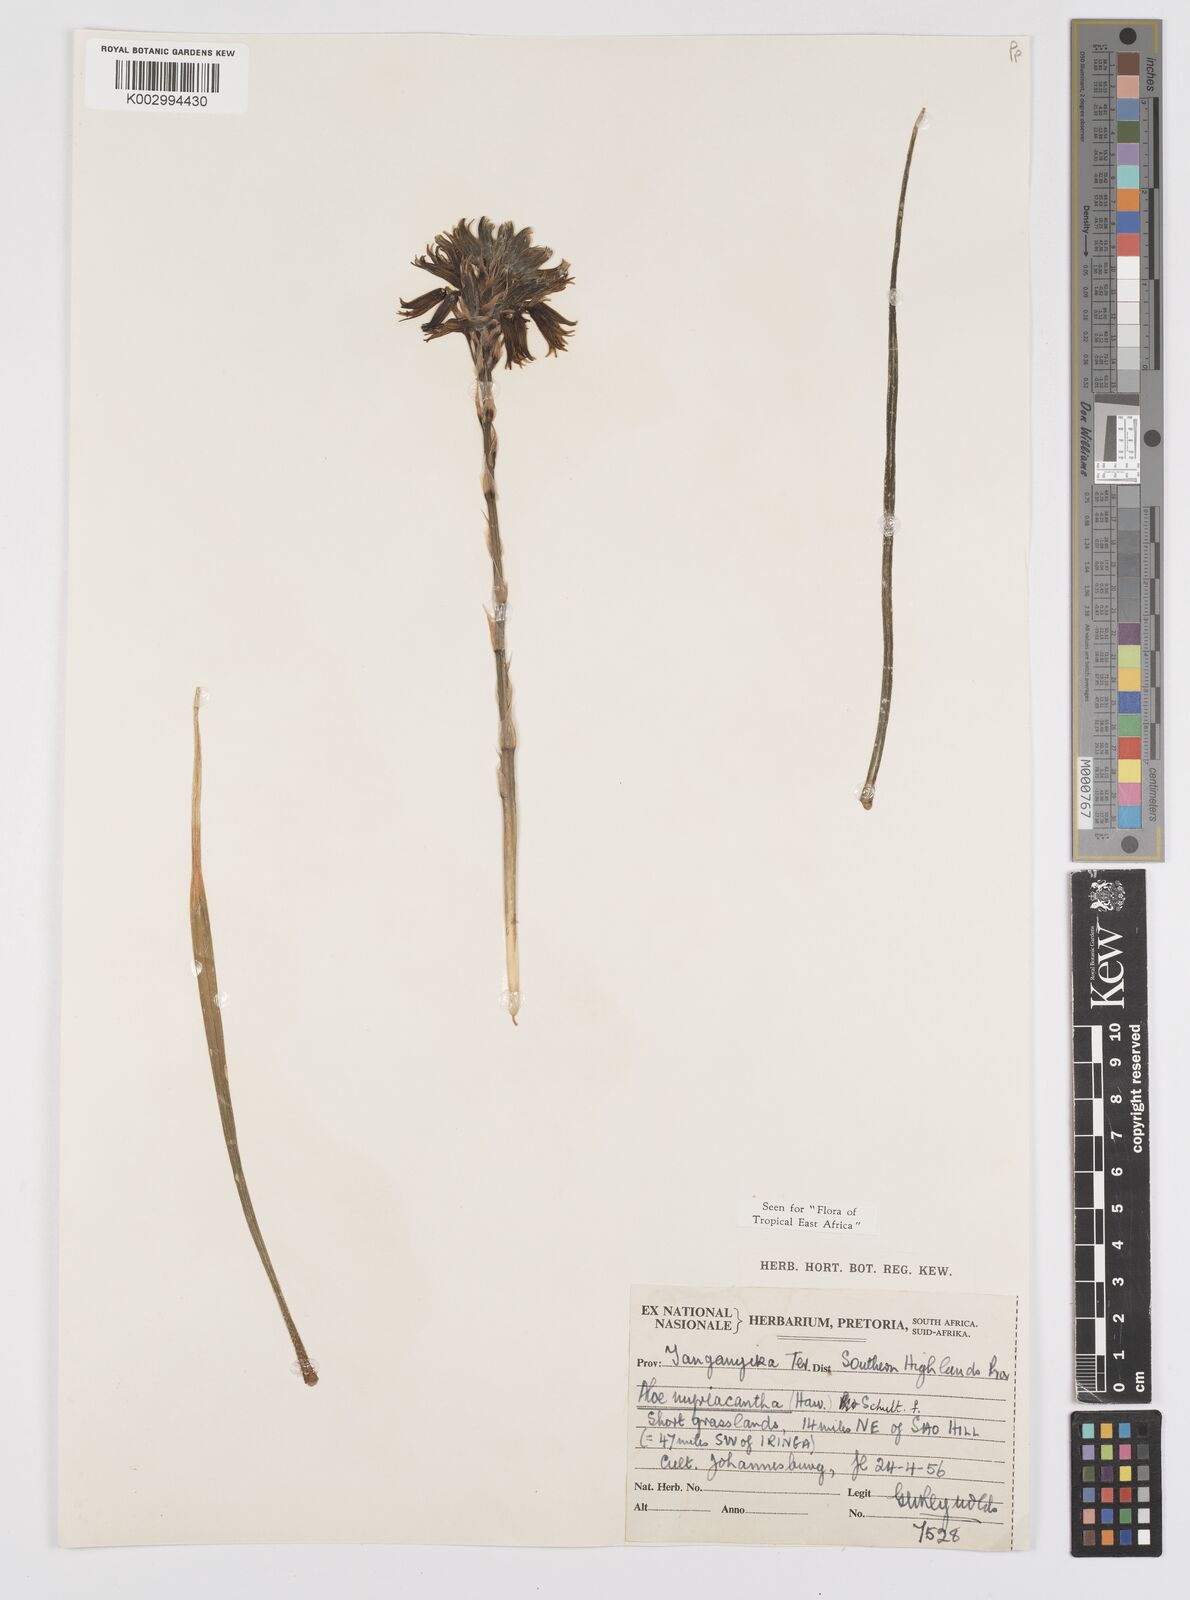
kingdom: Plantae
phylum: Tracheophyta
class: Liliopsida
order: Asparagales
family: Asphodelaceae
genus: Aloe
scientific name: Aloe myriacantha
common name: Grass aloe
